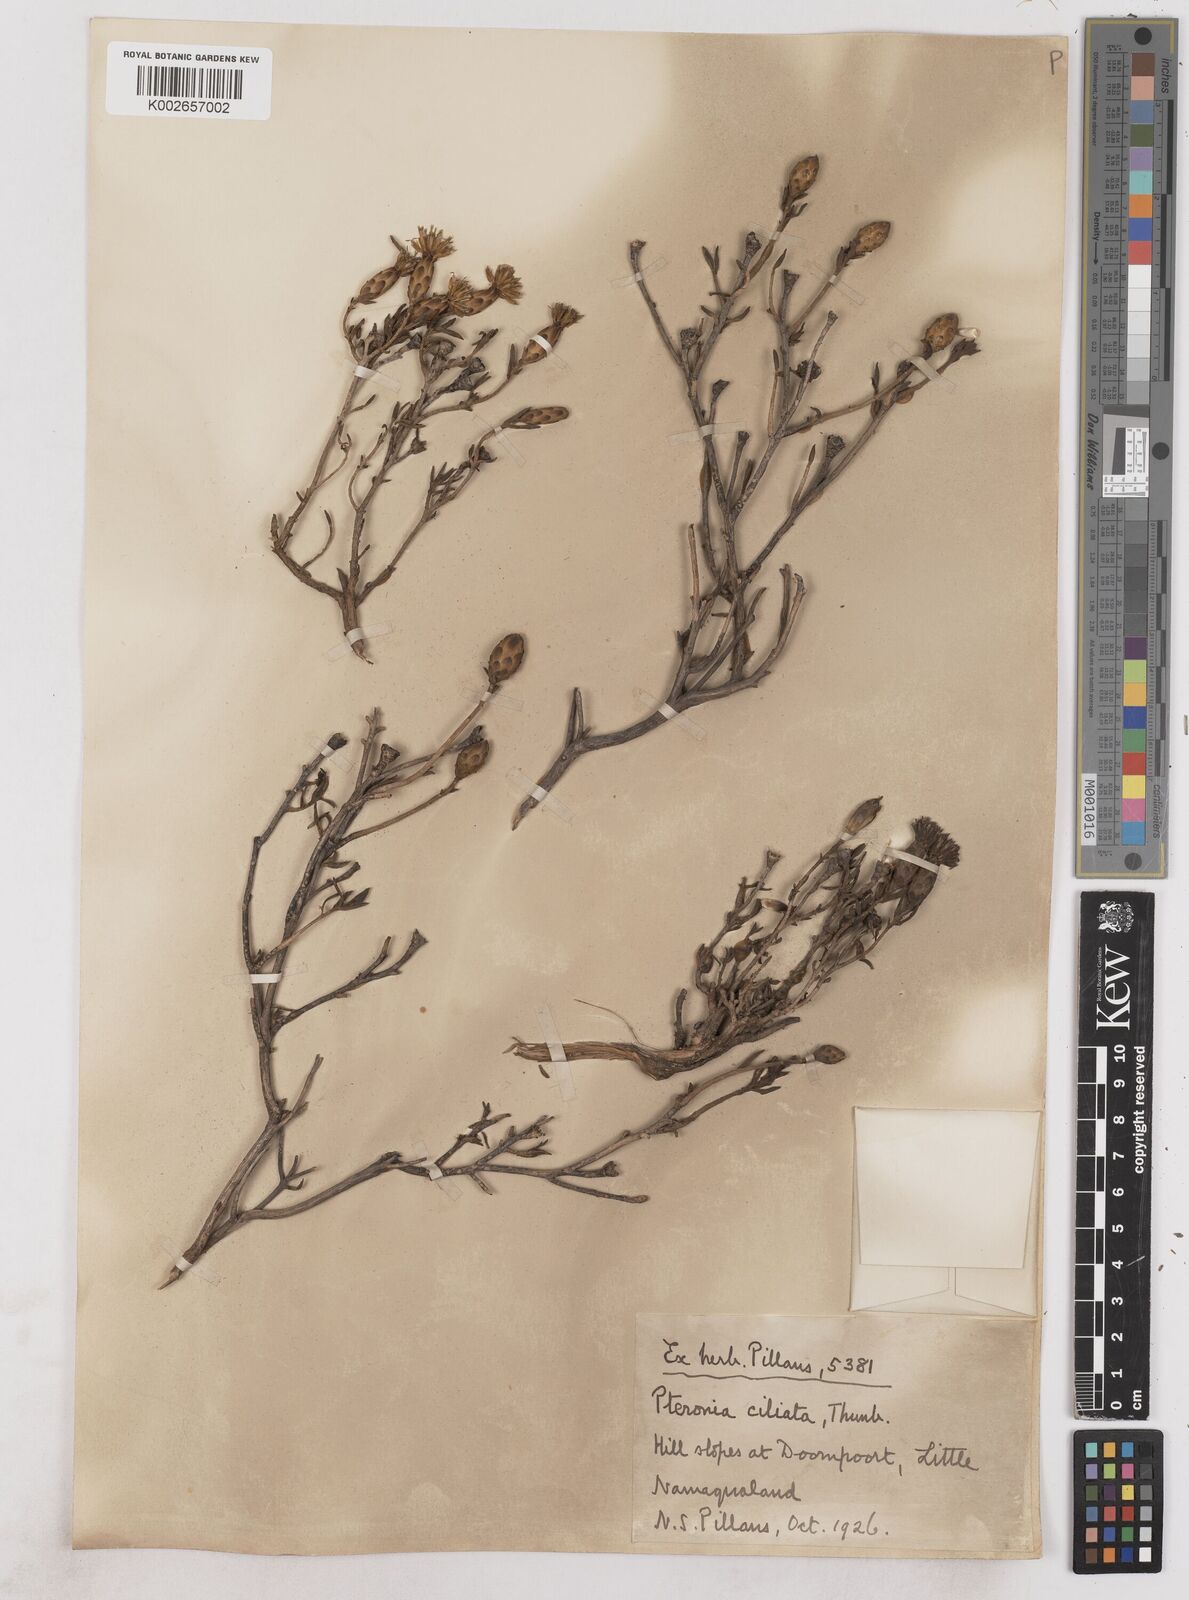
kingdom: Plantae
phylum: Tracheophyta
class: Magnoliopsida
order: Asterales
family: Asteraceae
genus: Pteronia
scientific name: Pteronia ciliata
